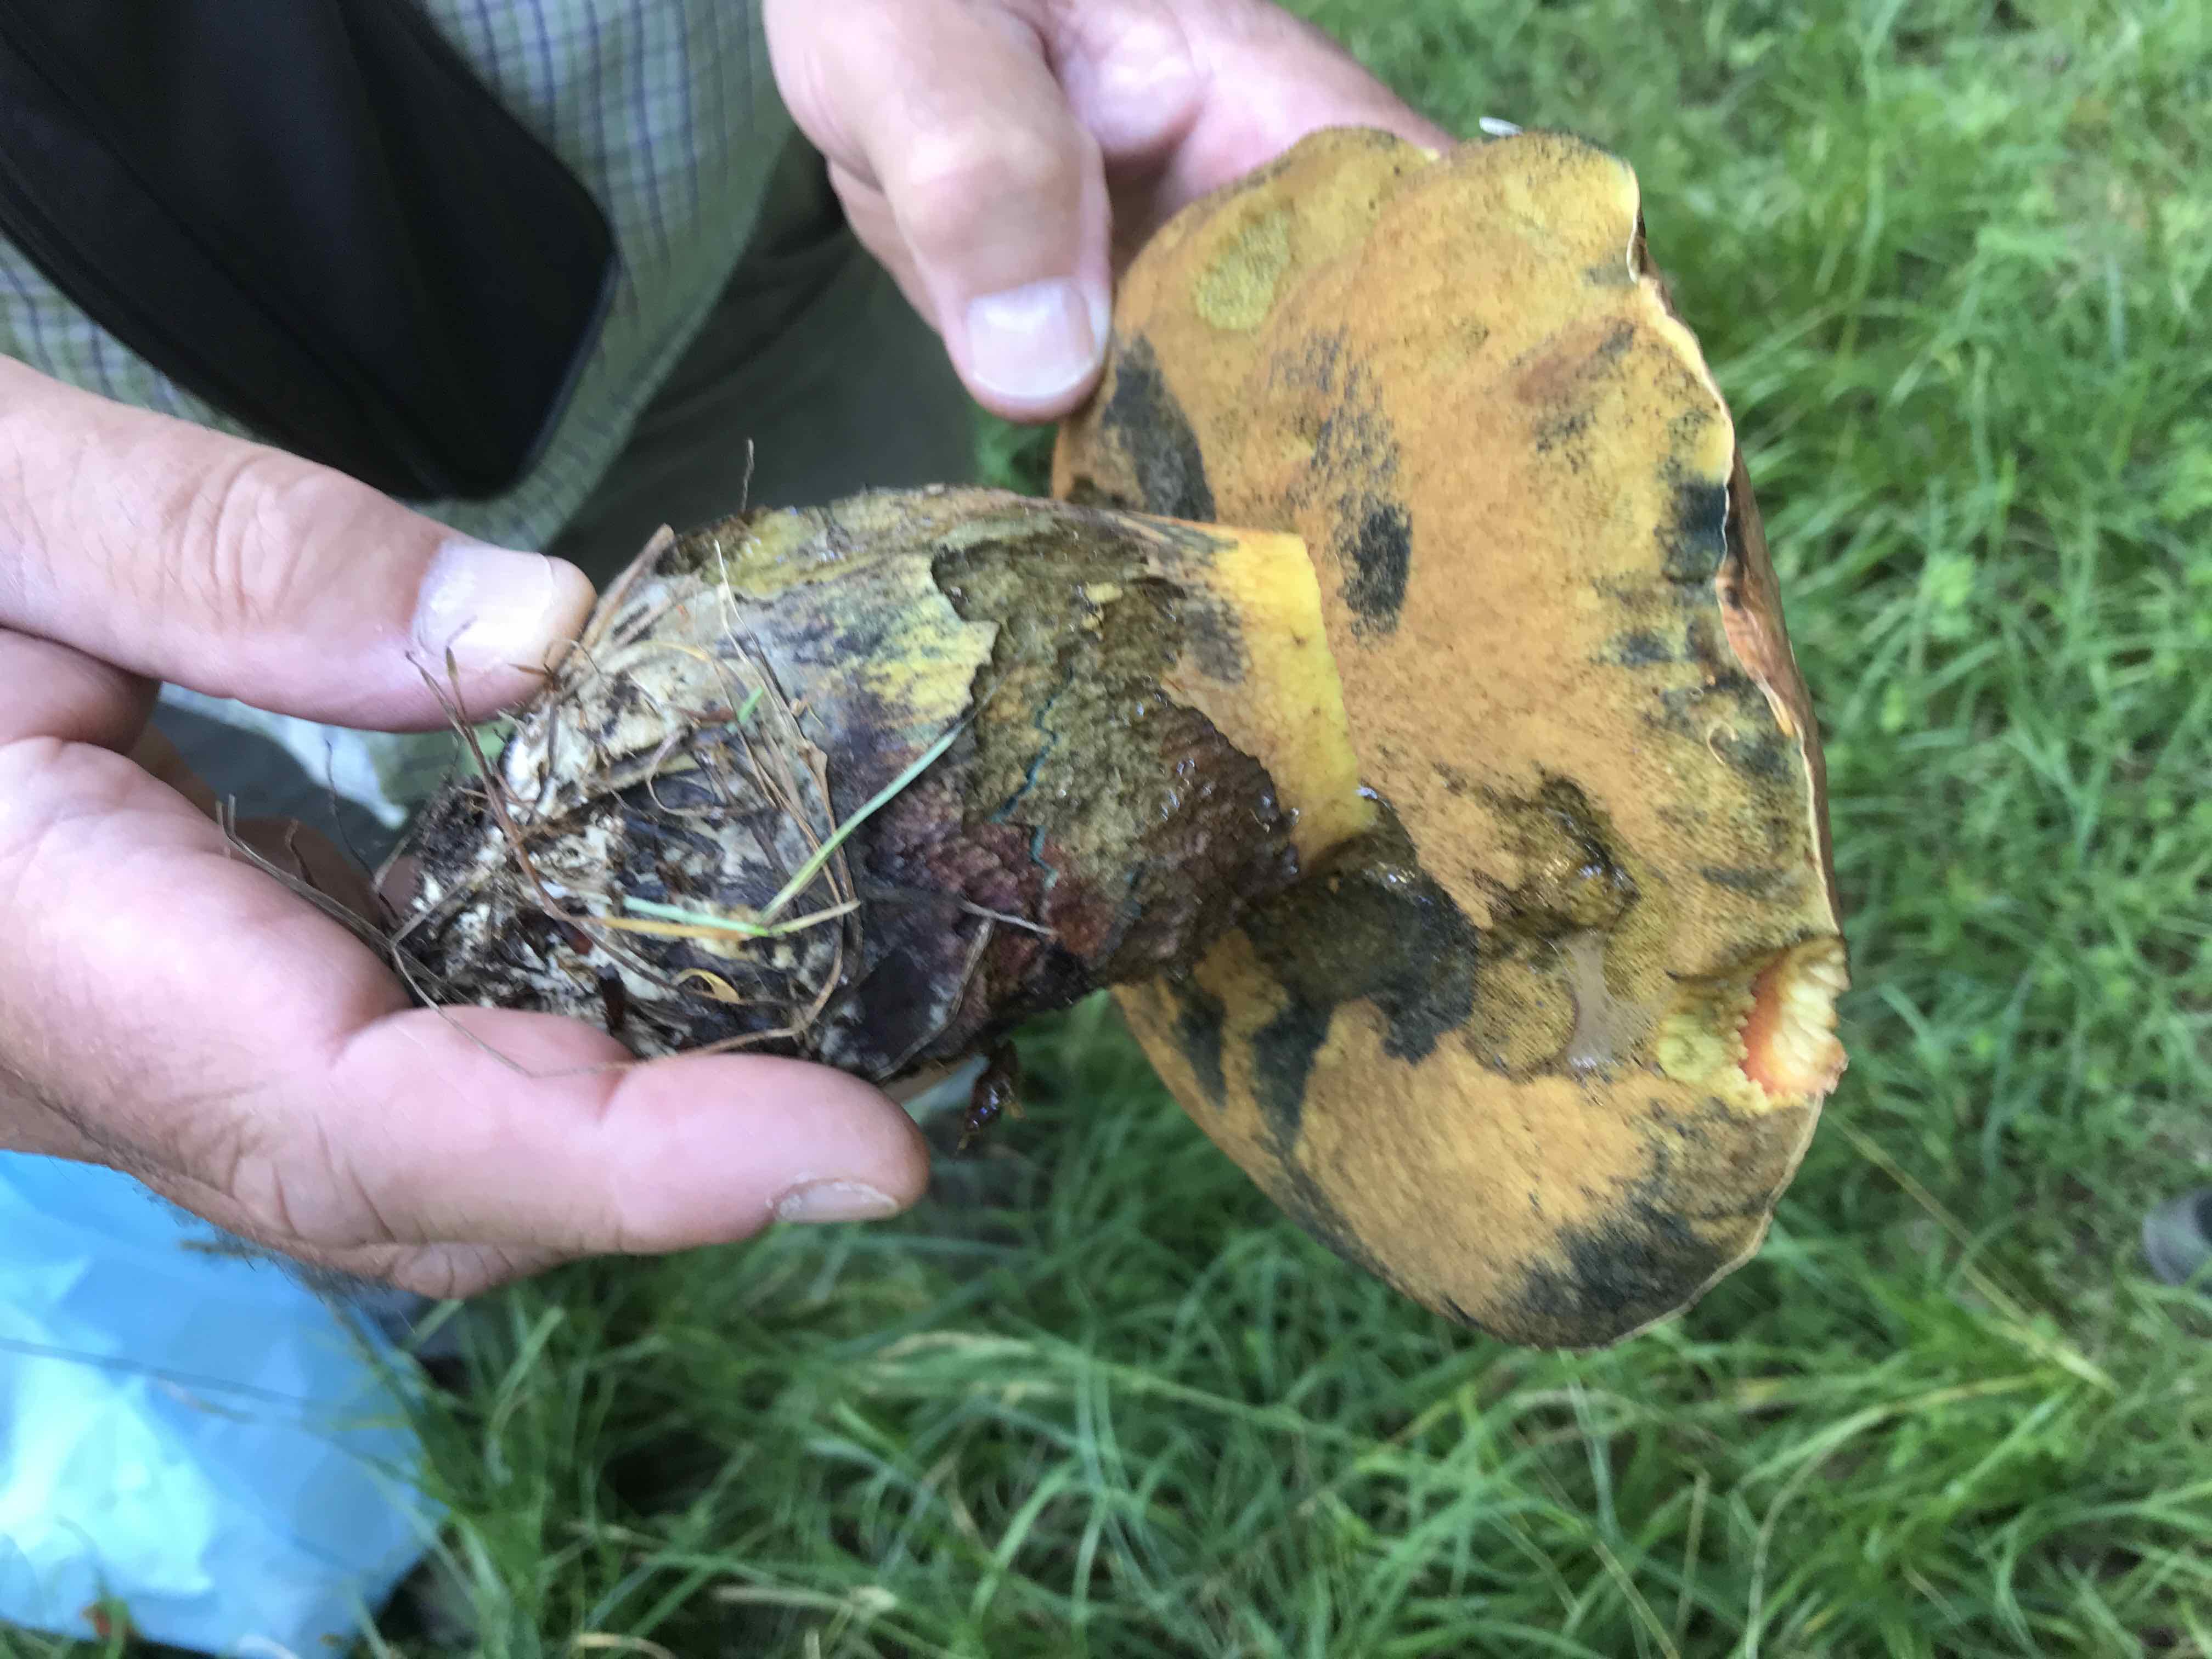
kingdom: Fungi
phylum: Basidiomycota
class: Agaricomycetes
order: Boletales
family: Boletaceae
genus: Suillellus
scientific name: Suillellus luridus
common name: netstokket indigorørhat
